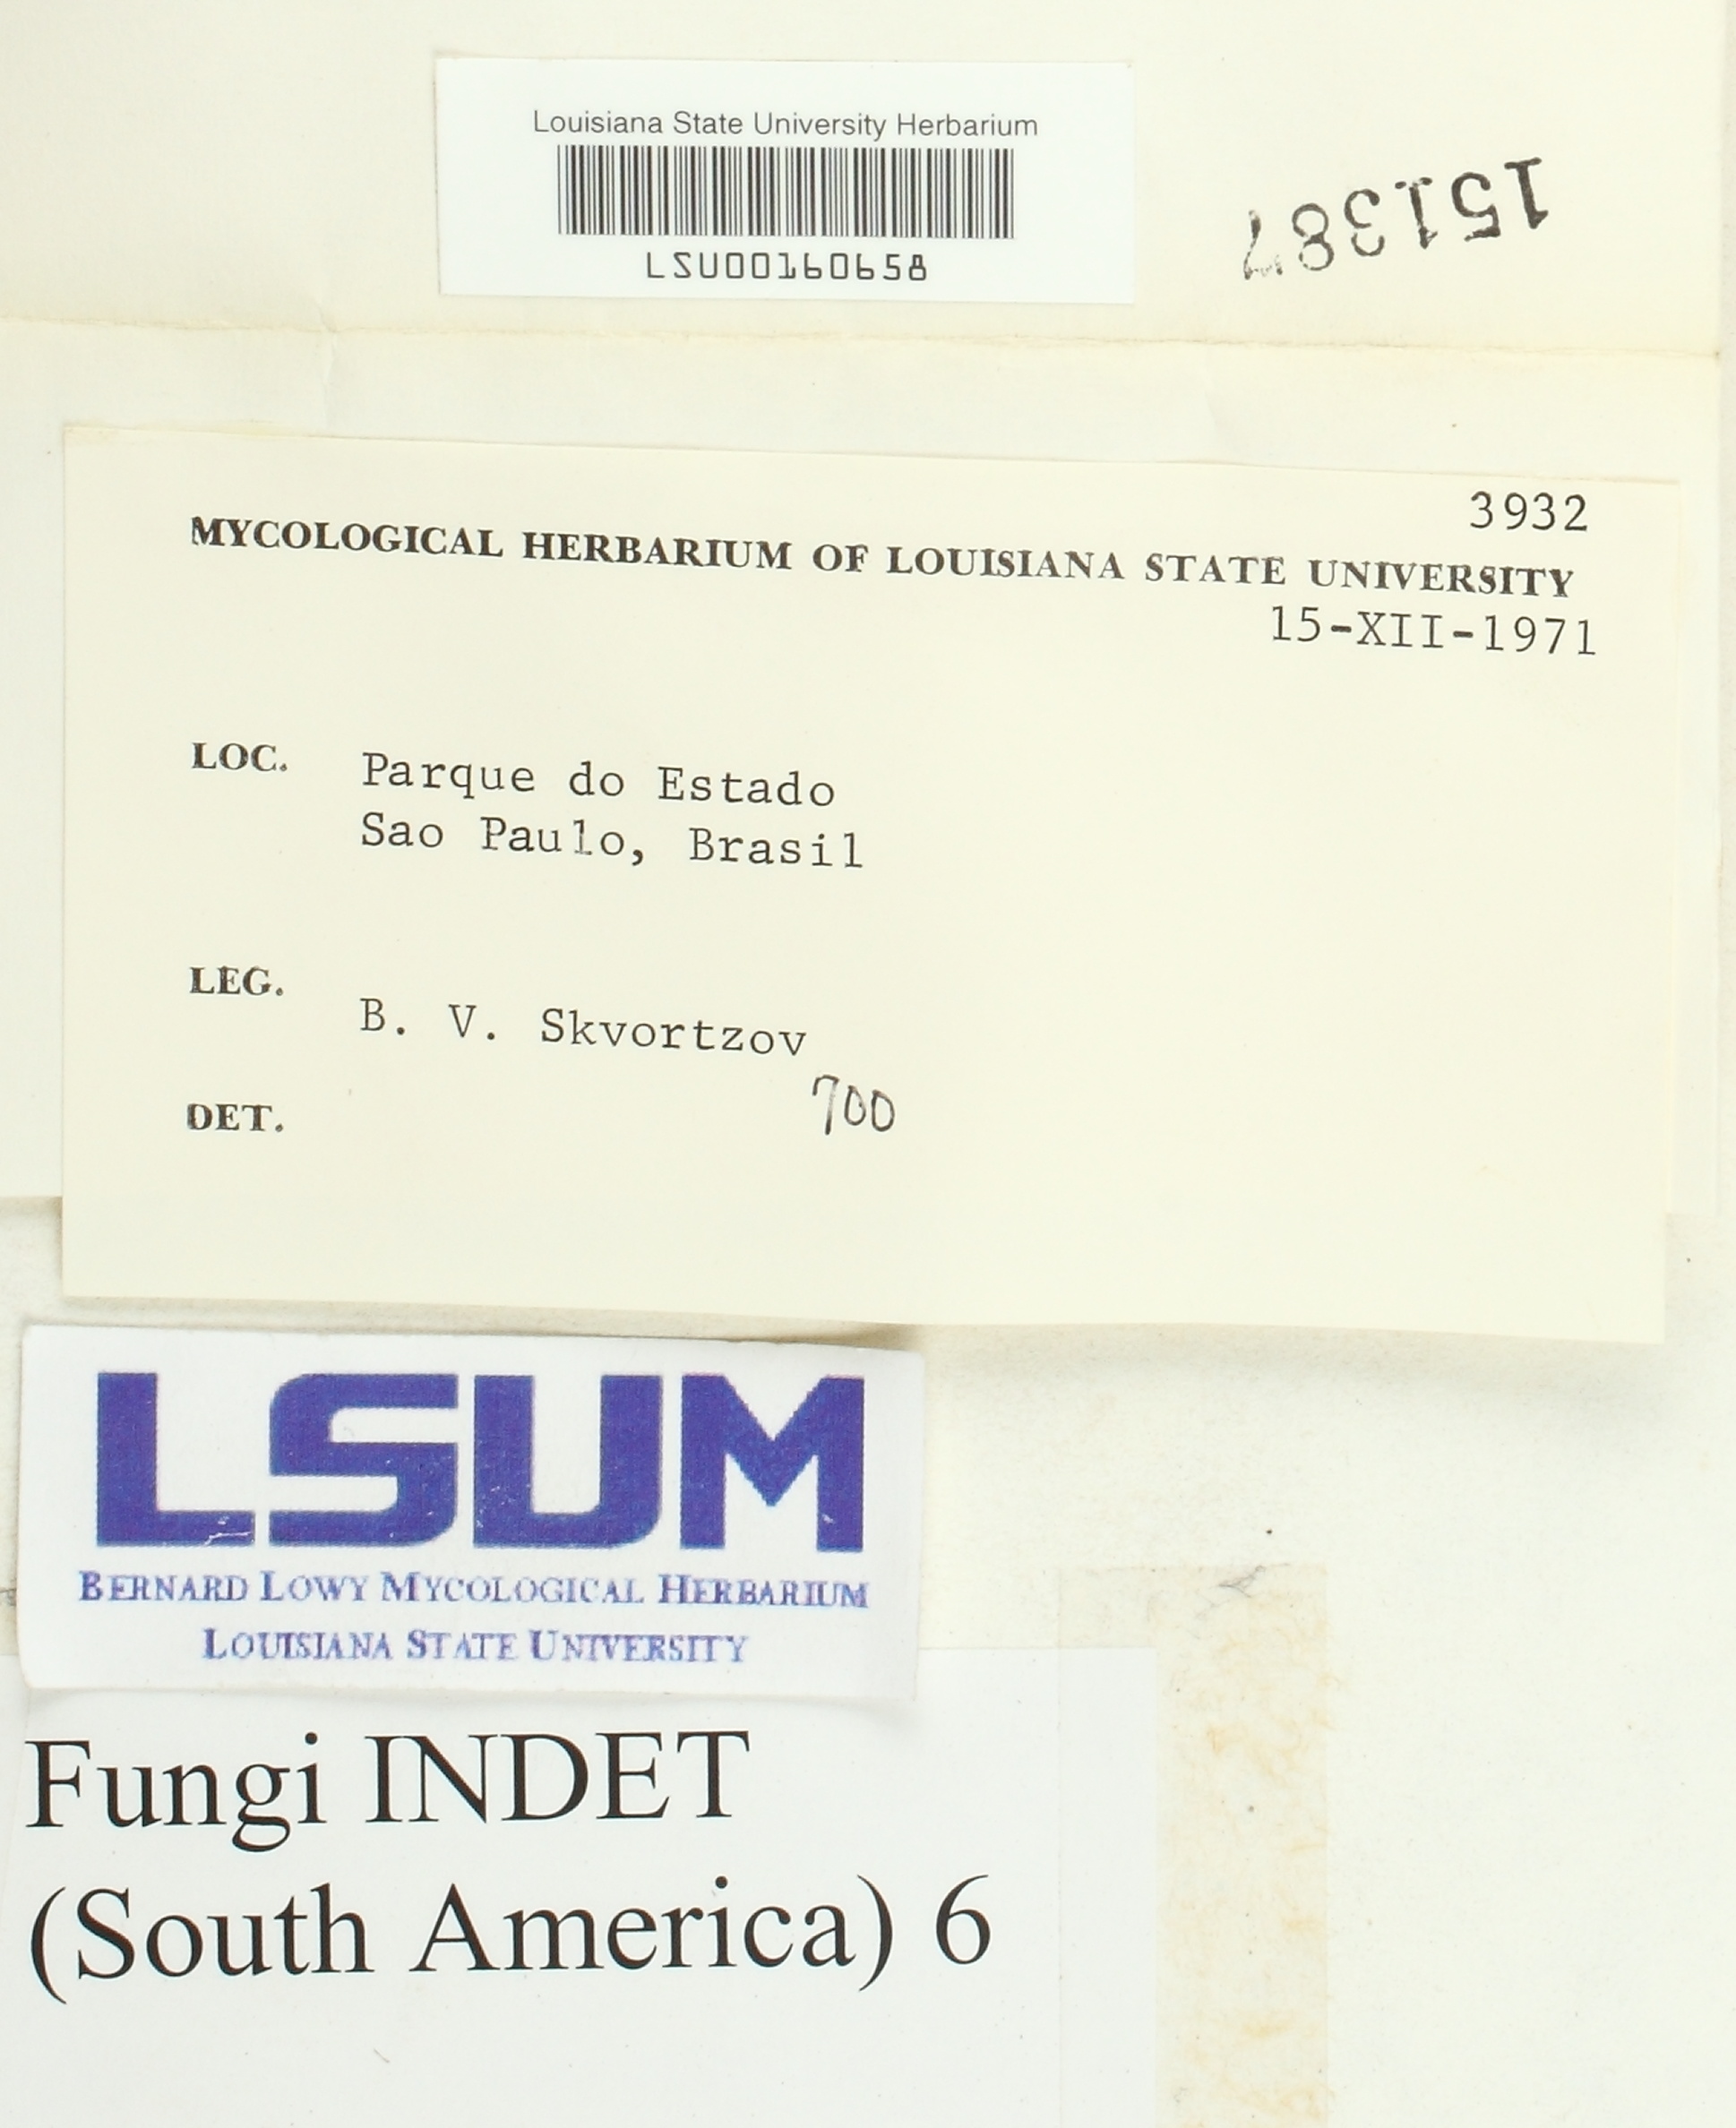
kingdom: Fungi
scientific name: Fungi
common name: Fungi
